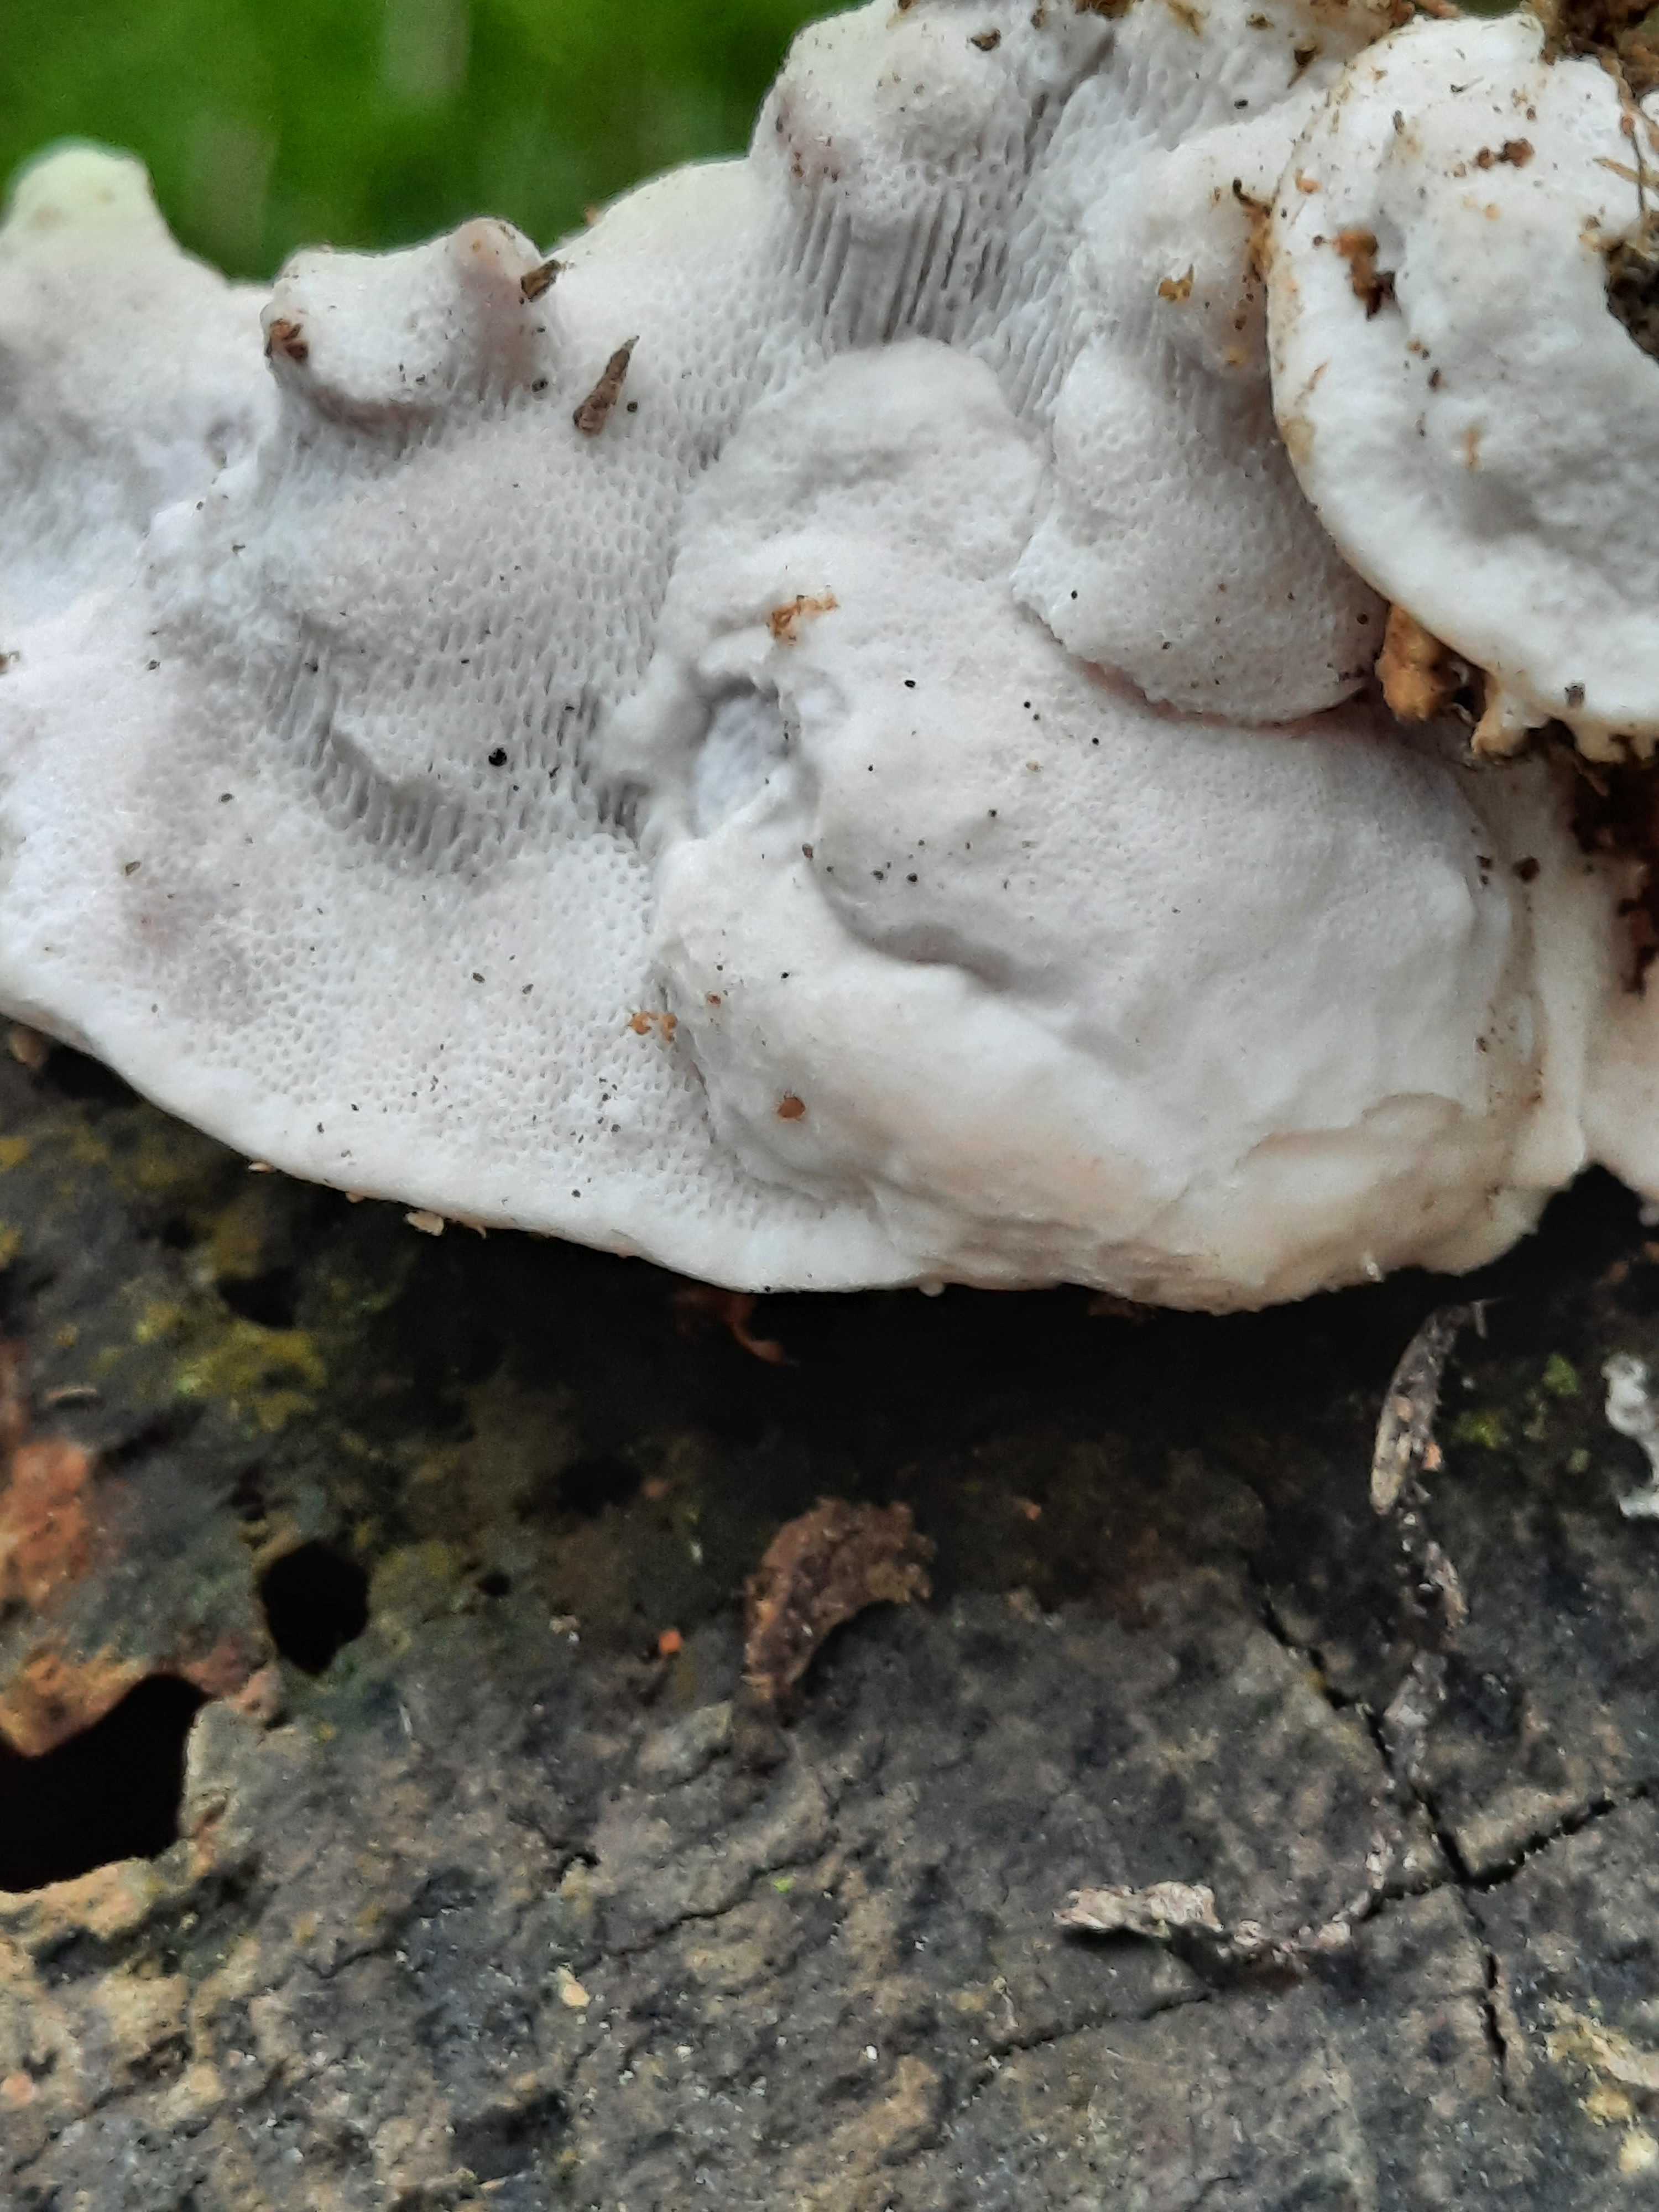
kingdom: Fungi
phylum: Basidiomycota
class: Agaricomycetes
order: Polyporales
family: Fomitopsidaceae
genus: Neoantrodia
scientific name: Neoantrodia serialis
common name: række-sejporesvamp
